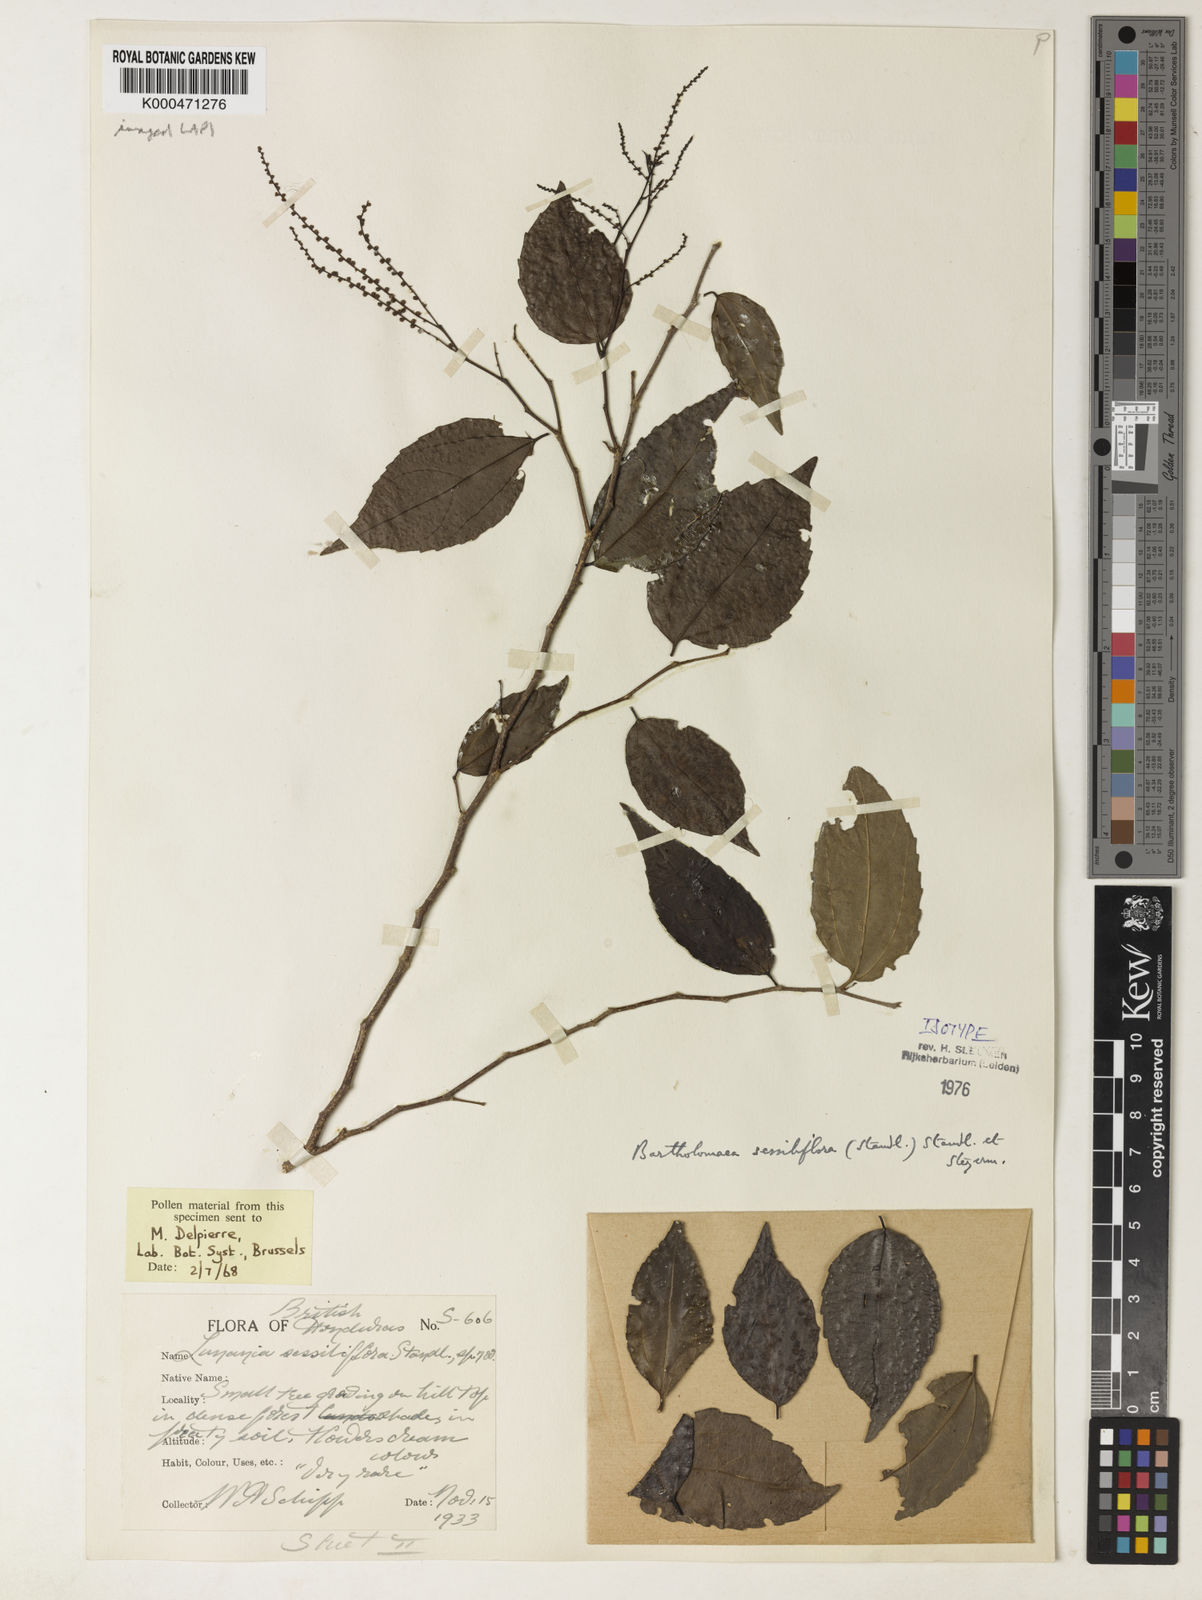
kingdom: Plantae
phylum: Tracheophyta
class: Magnoliopsida
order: Malpighiales
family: Salicaceae
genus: Bartholomaea
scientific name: Bartholomaea sessiliflora
